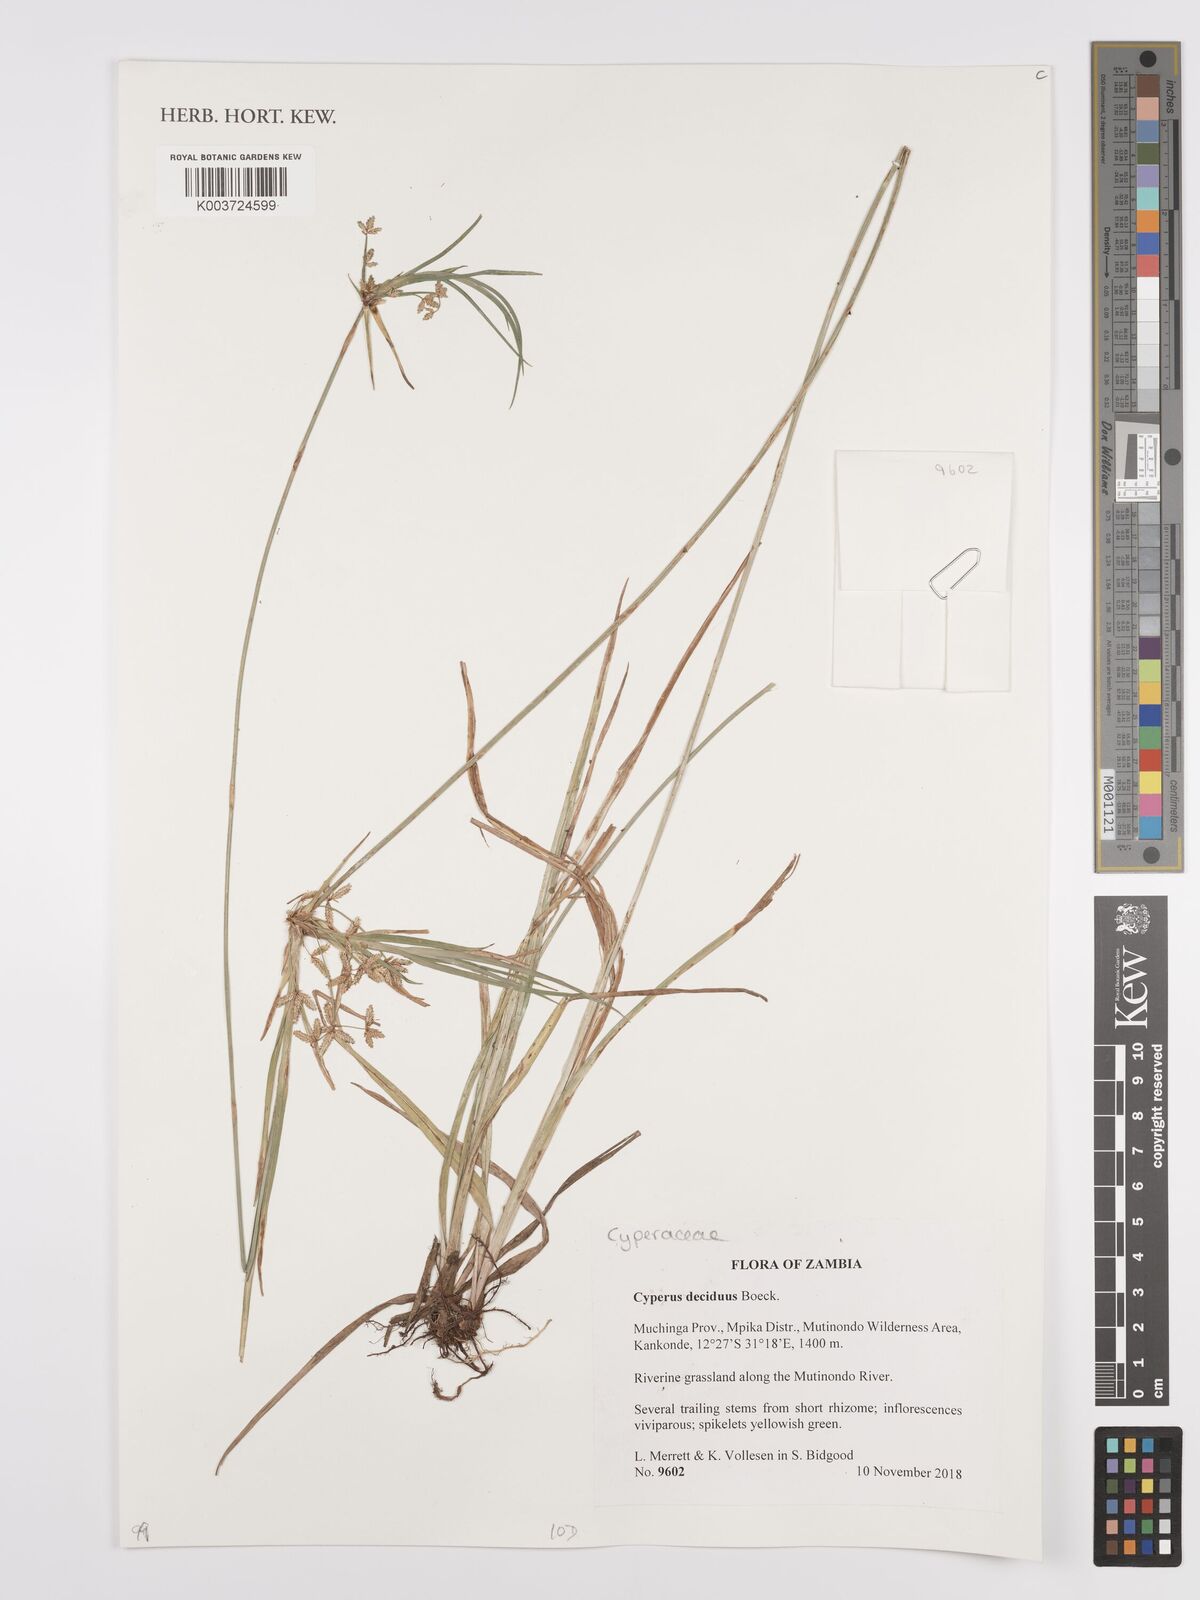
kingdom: Plantae
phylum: Tracheophyta
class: Liliopsida
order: Poales
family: Cyperaceae
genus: Cyperus
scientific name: Cyperus deciduus
